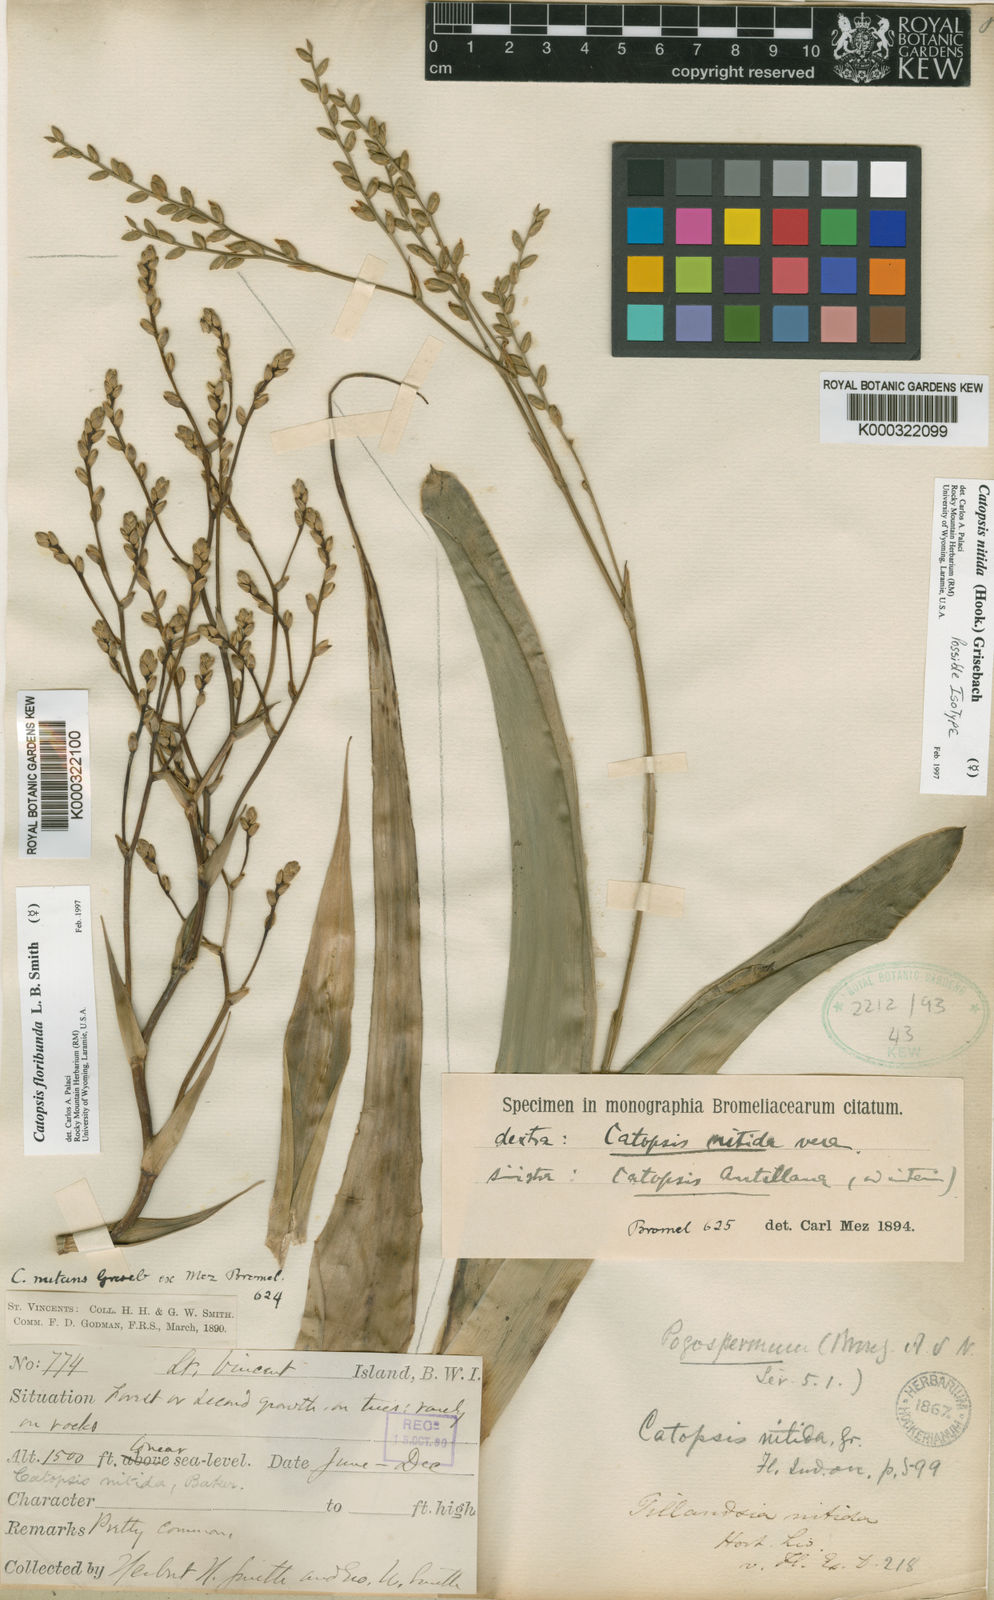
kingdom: Plantae
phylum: Tracheophyta
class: Liliopsida
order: Poales
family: Bromeliaceae
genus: Catopsis
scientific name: Catopsis nitida
